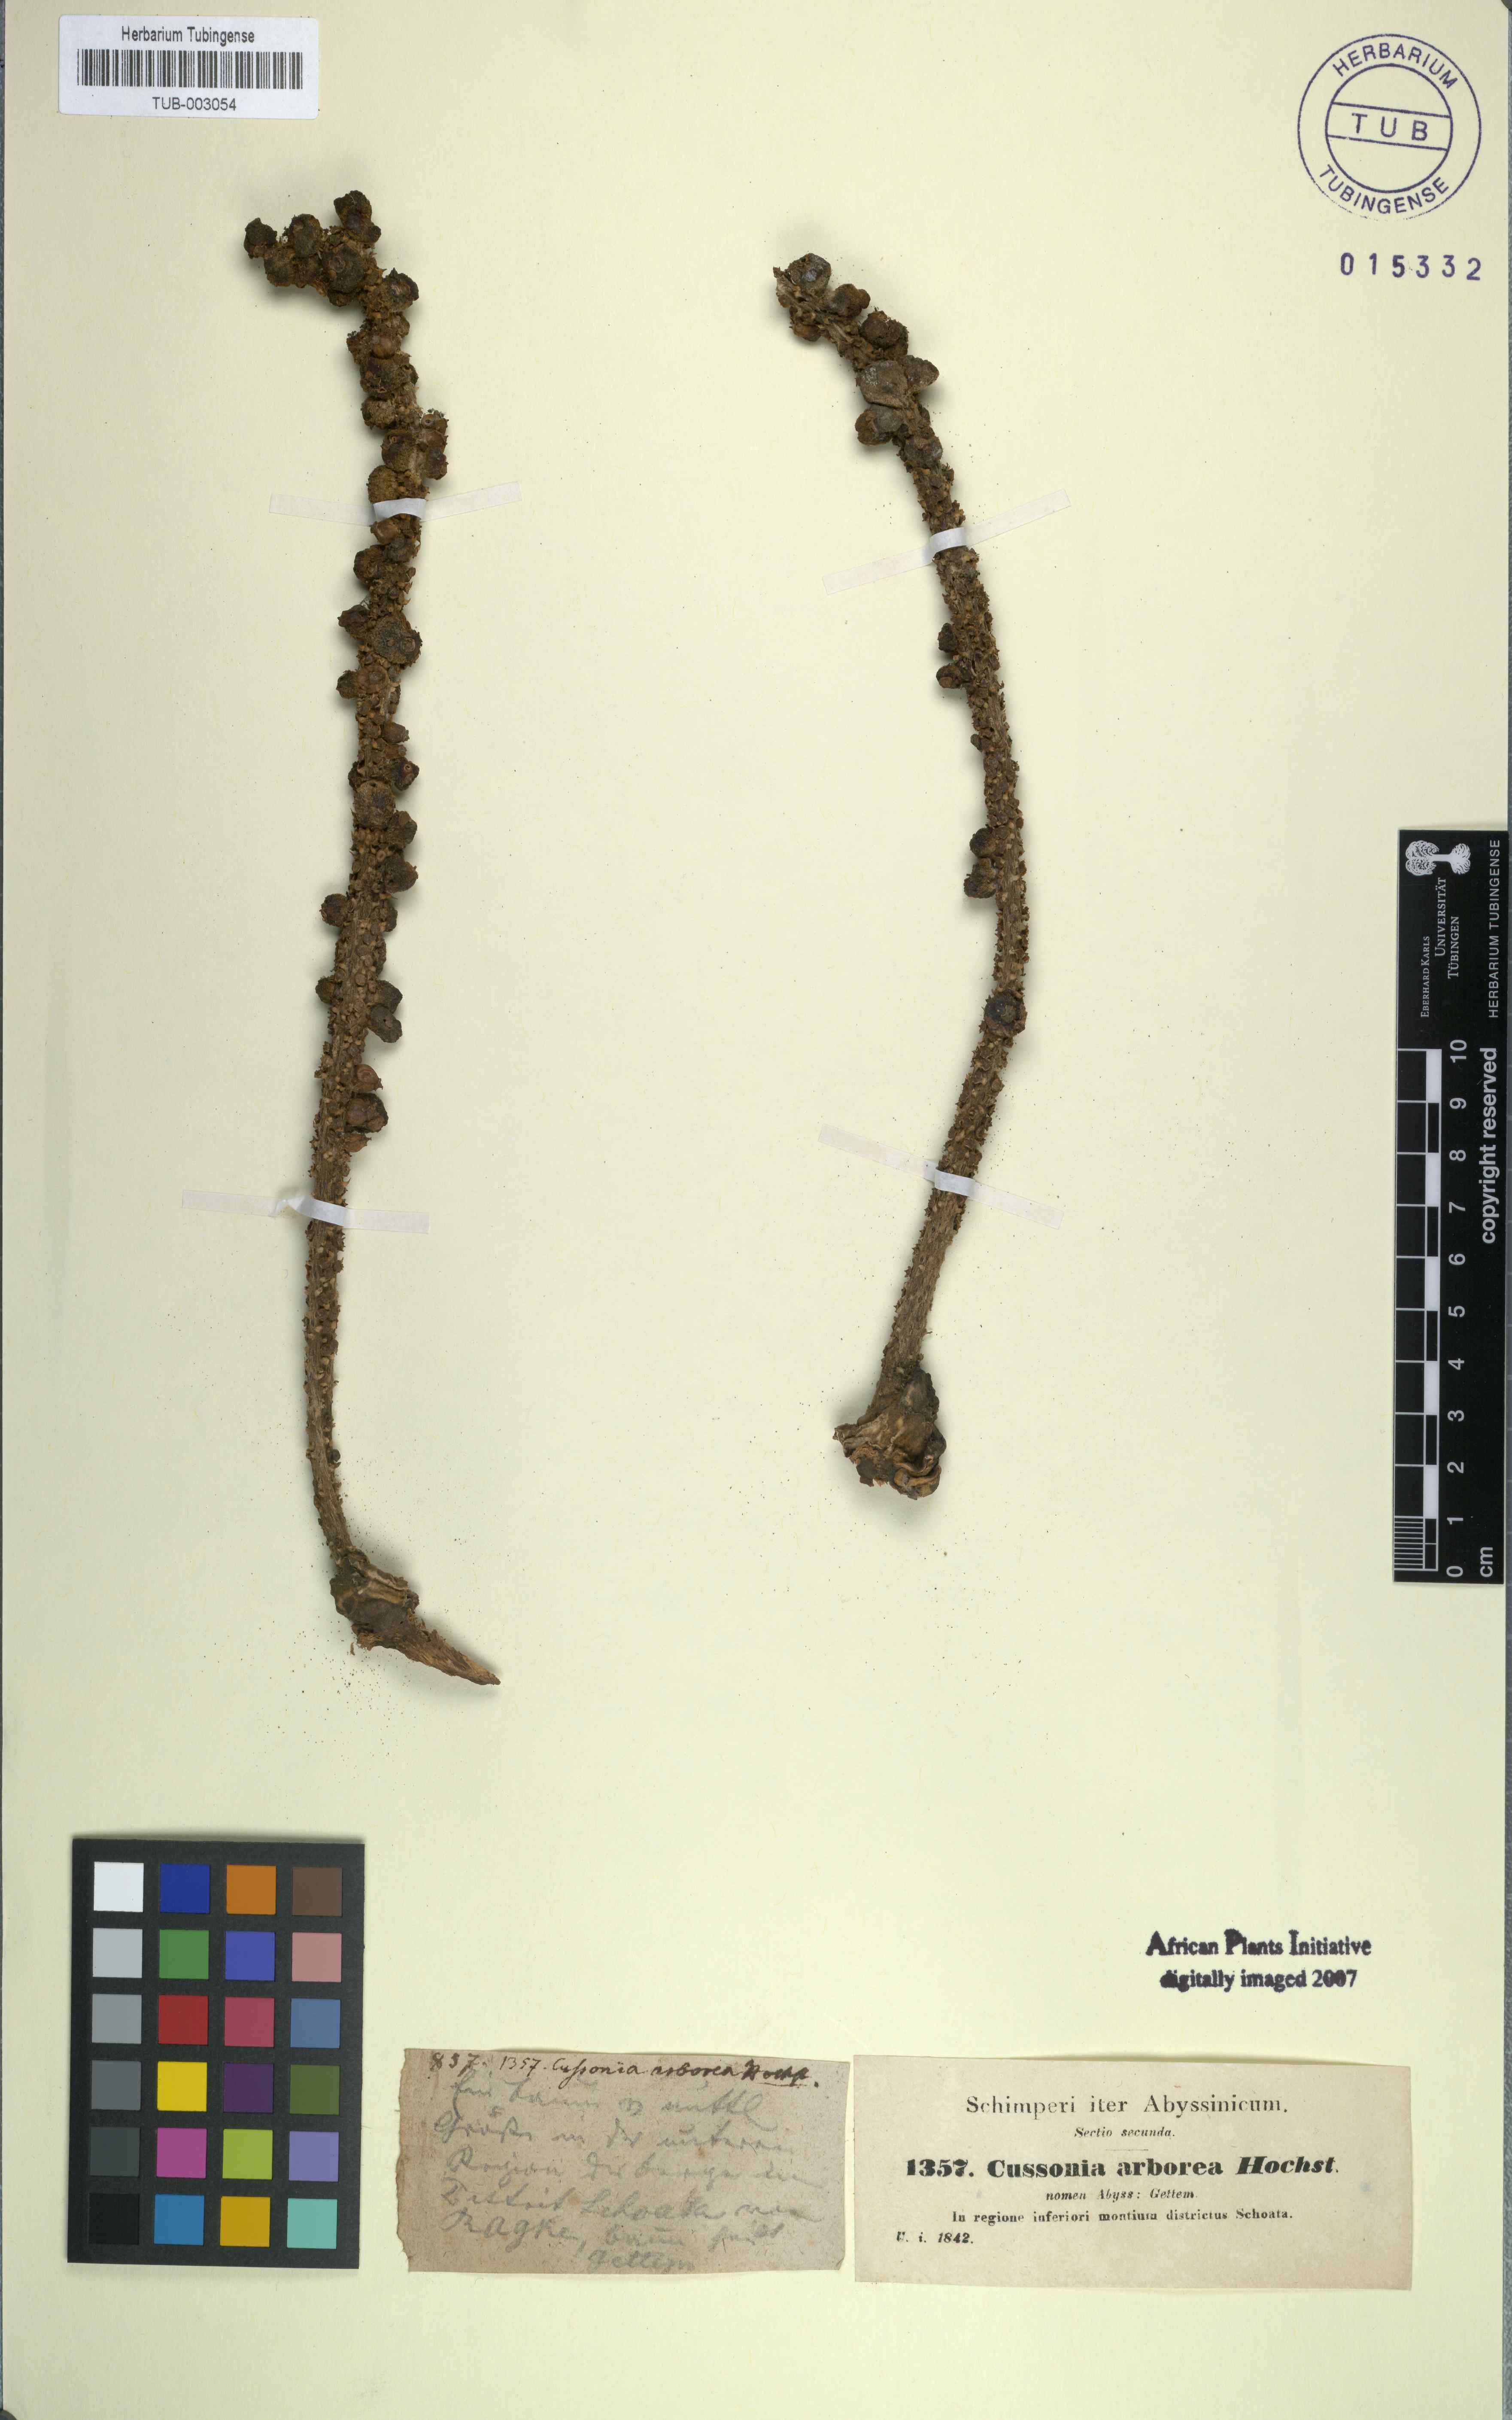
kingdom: Plantae
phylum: Tracheophyta
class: Magnoliopsida
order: Apiales
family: Araliaceae
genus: Cussonia
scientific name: Cussonia arborea
